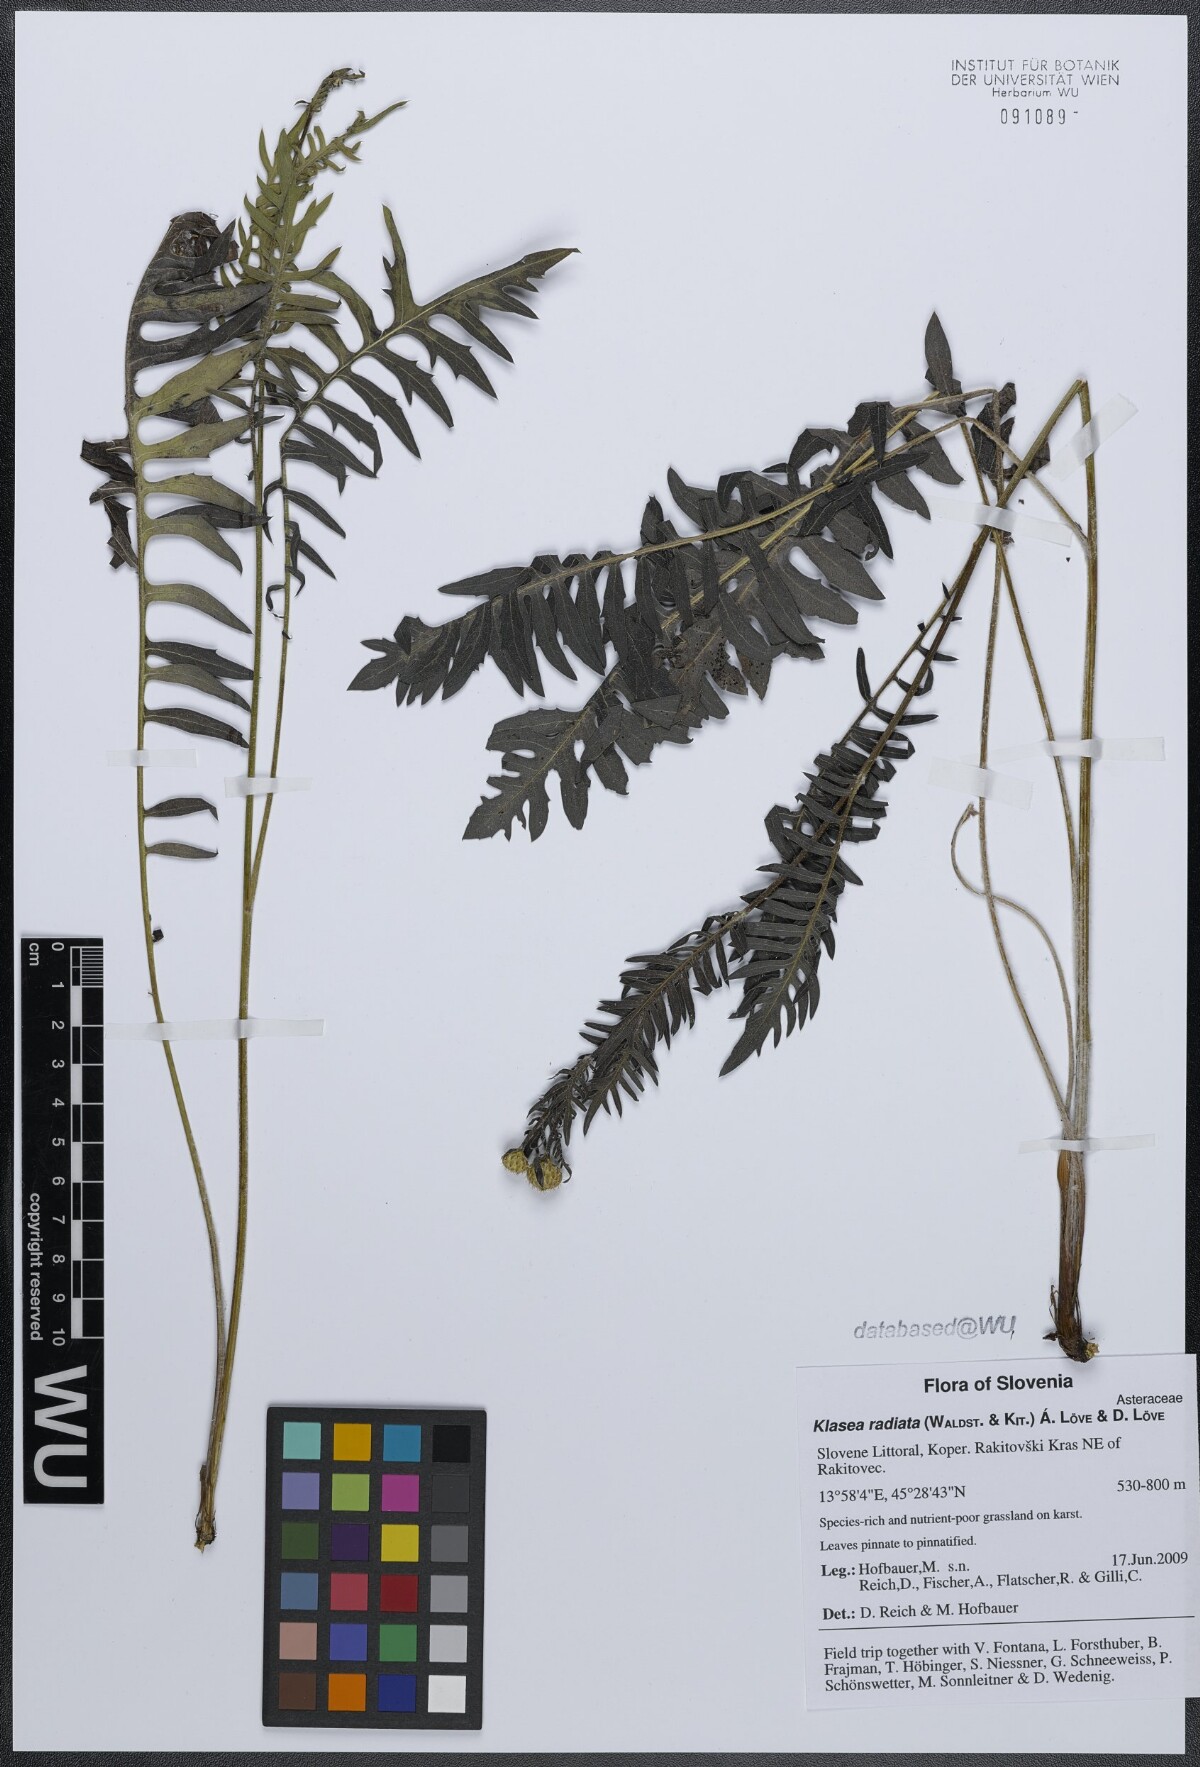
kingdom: Plantae
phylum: Tracheophyta
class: Magnoliopsida
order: Asterales
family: Asteraceae
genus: Klasea
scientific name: Klasea radiata
